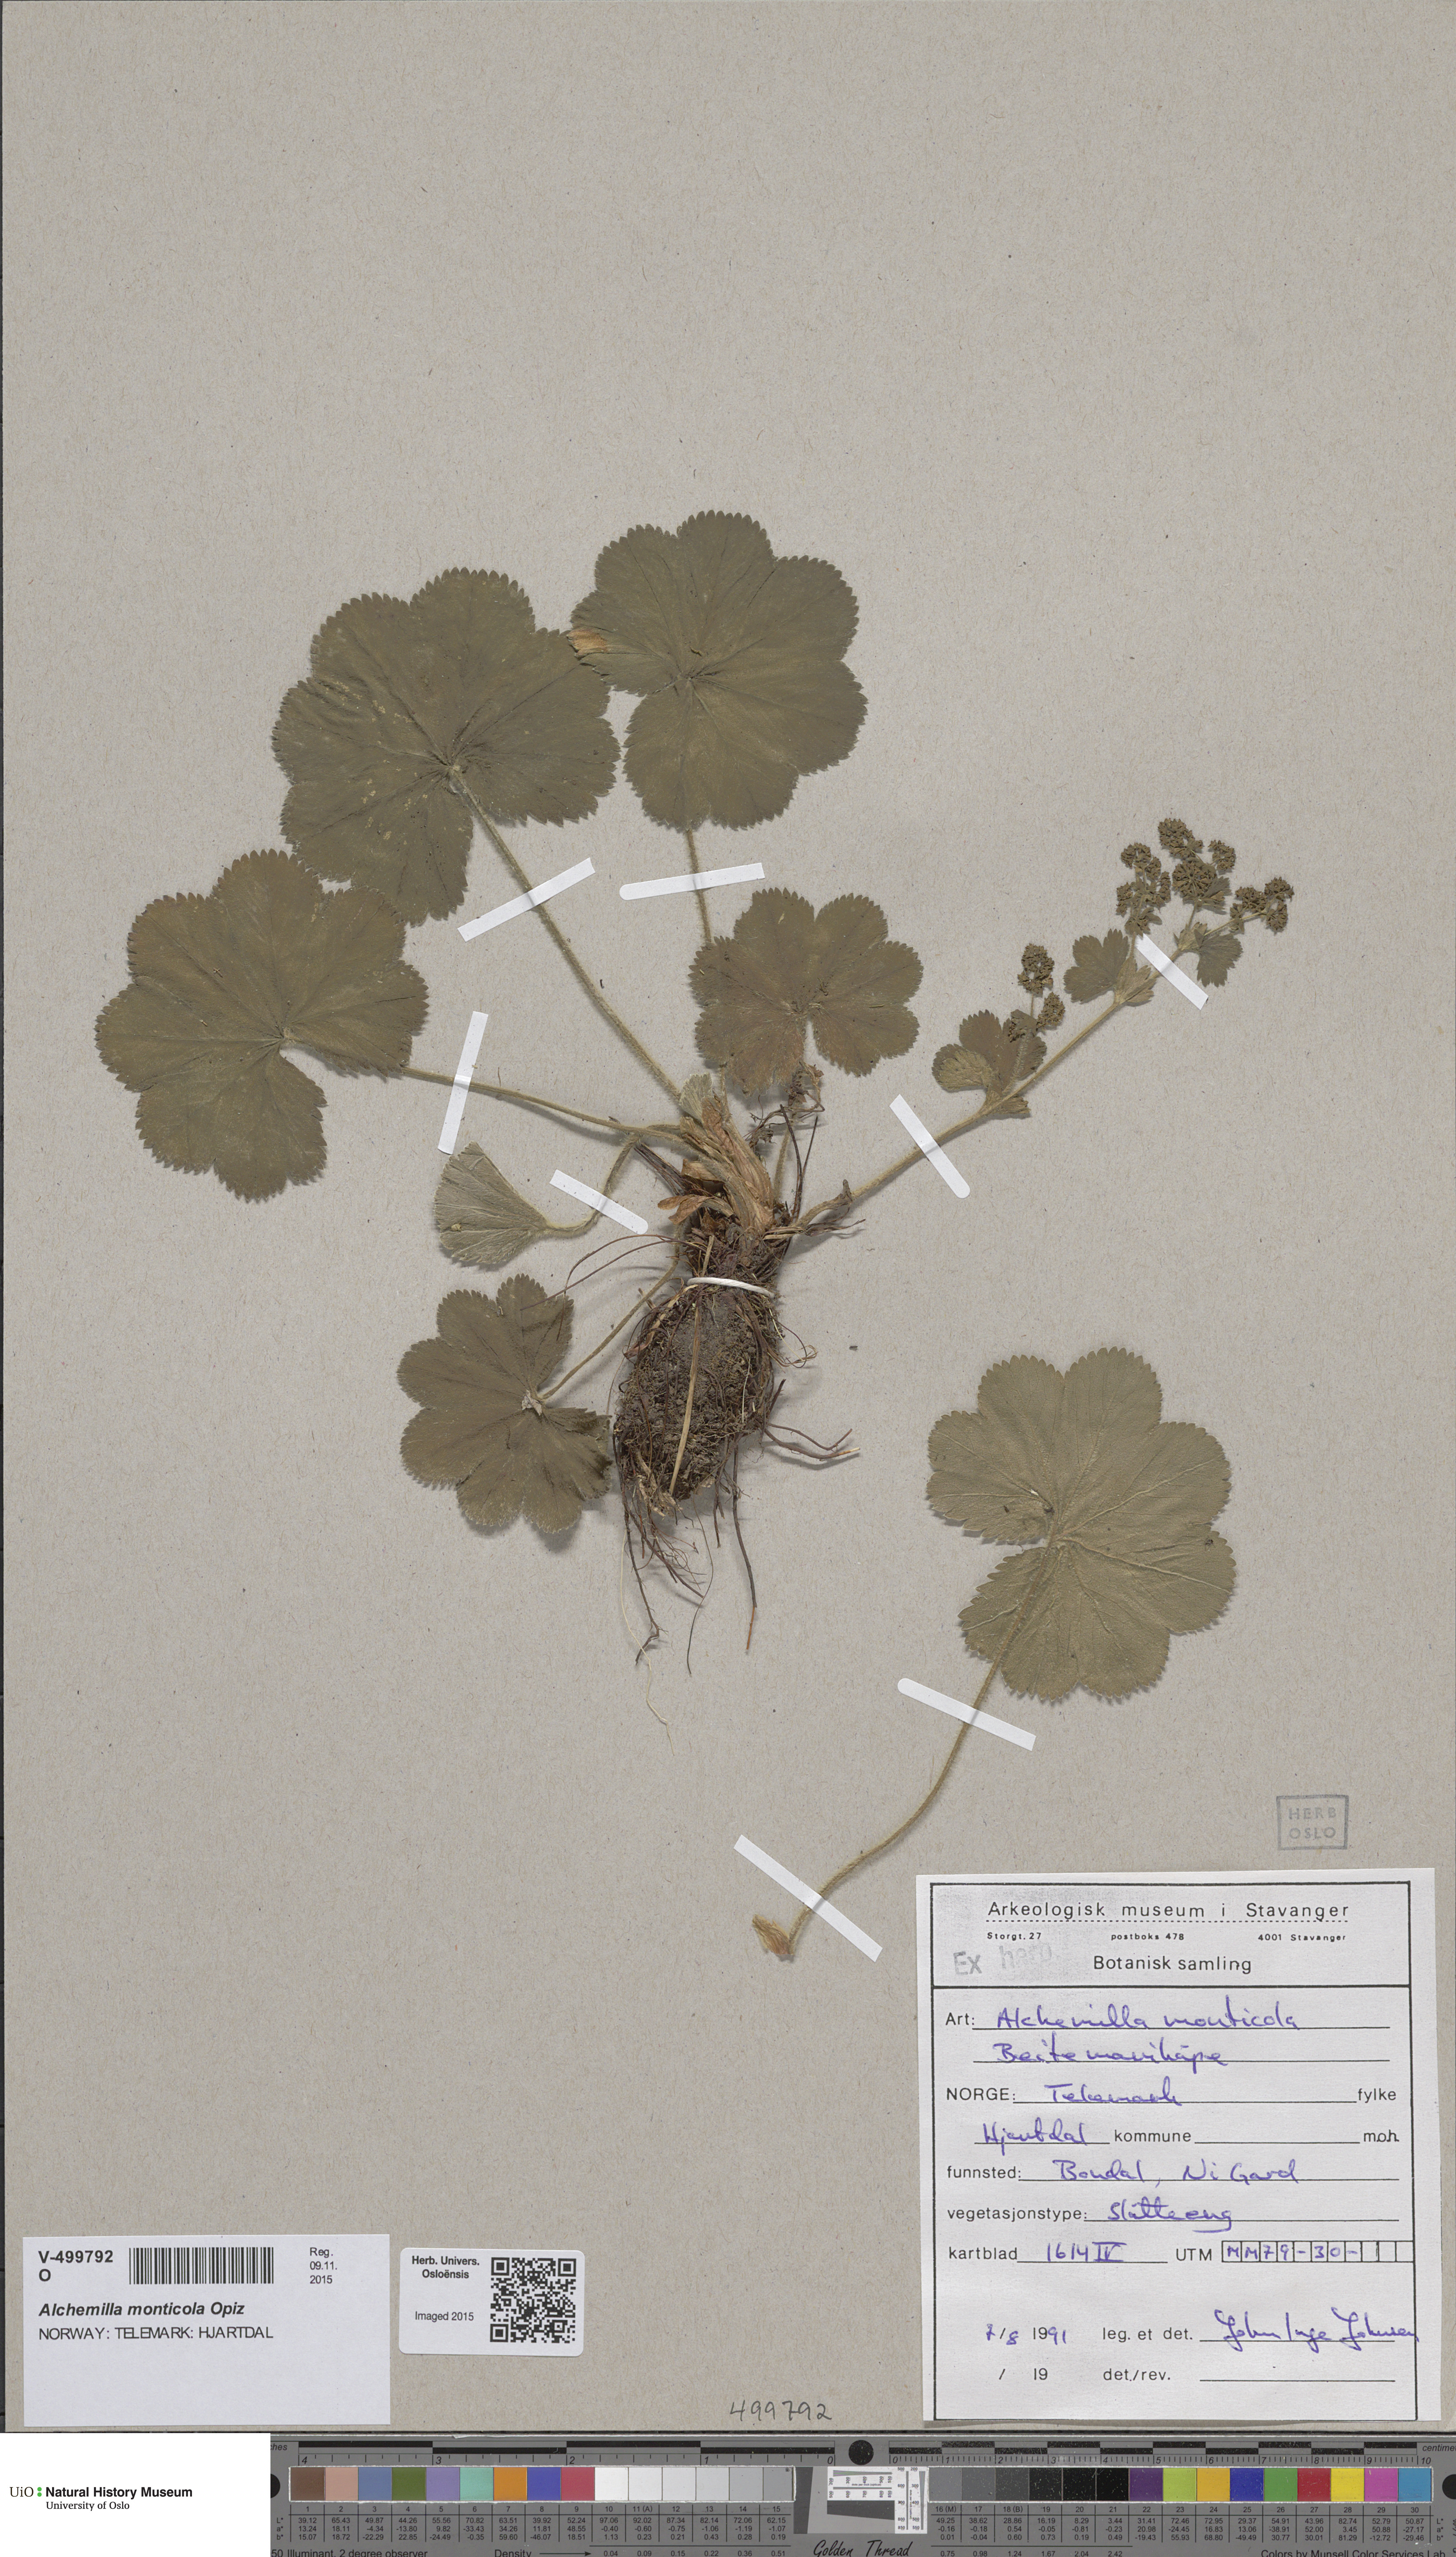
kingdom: Plantae
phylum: Tracheophyta
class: Magnoliopsida
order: Rosales
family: Rosaceae
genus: Alchemilla
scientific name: Alchemilla monticola
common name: Hairy lady's mantle
